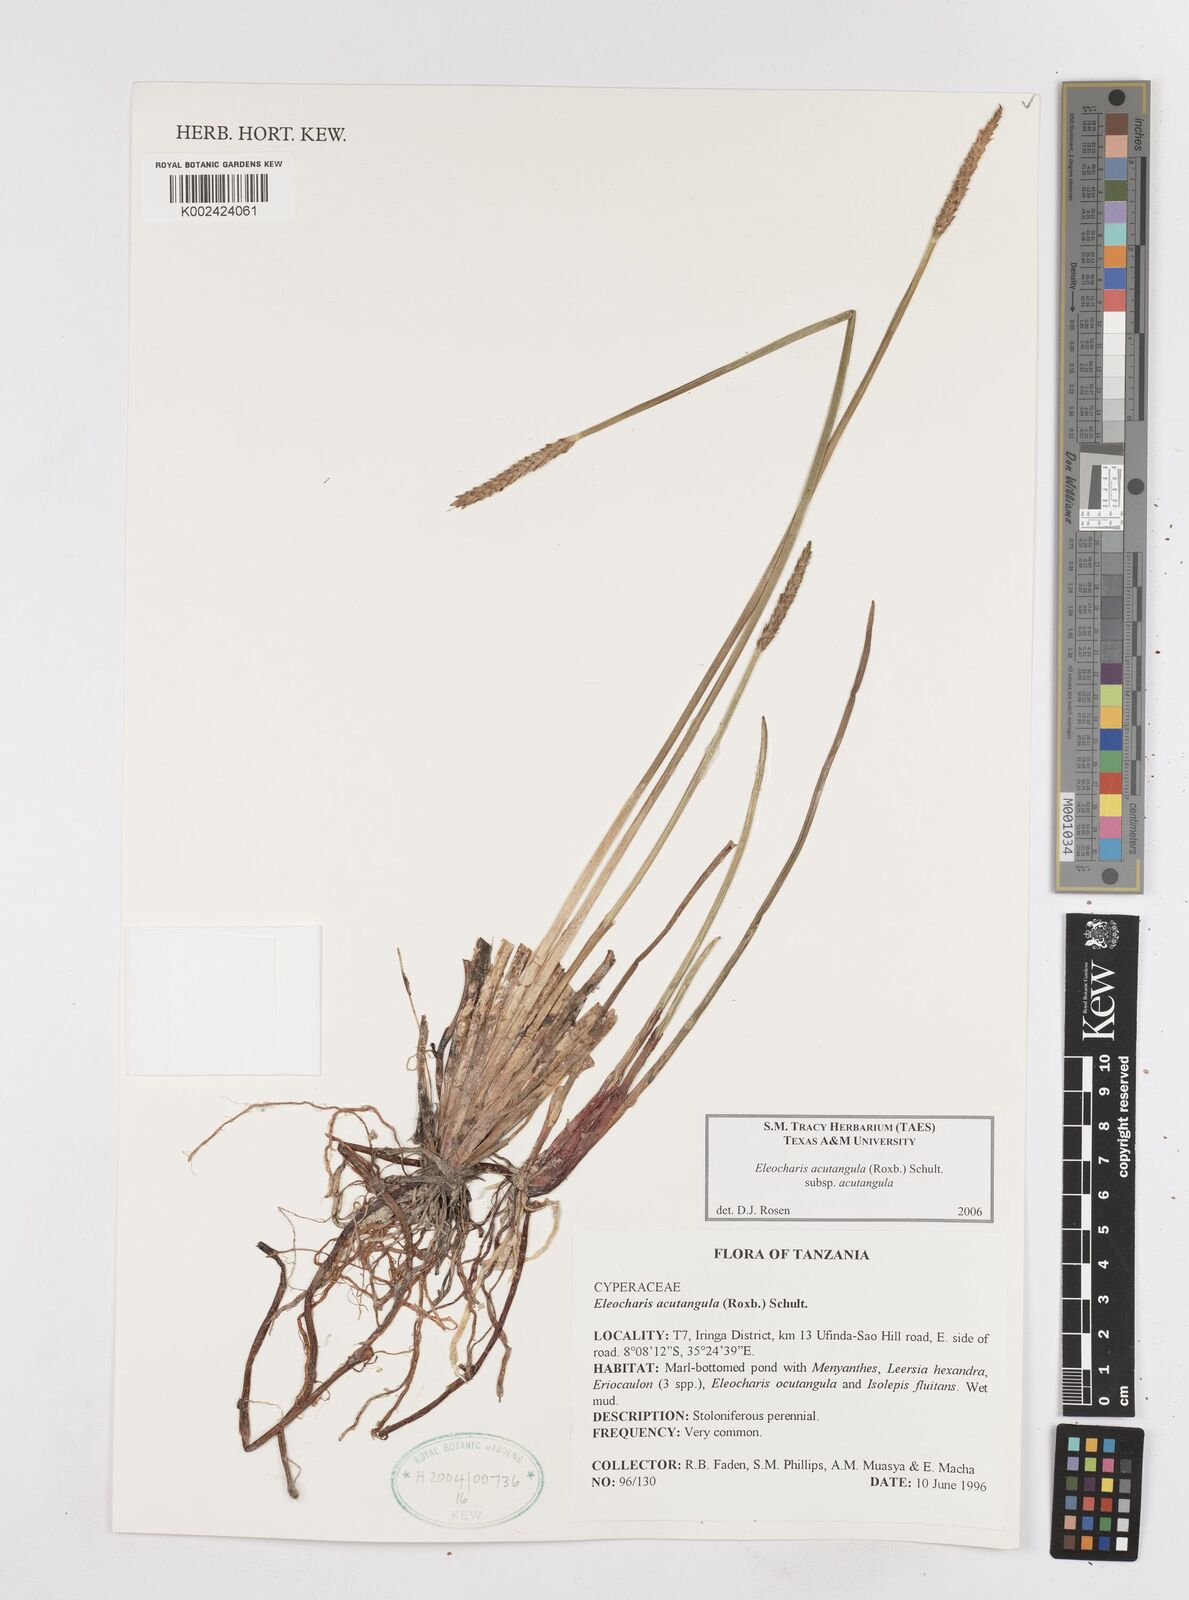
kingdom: Plantae
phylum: Tracheophyta
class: Liliopsida
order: Poales
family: Cyperaceae
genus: Eleocharis
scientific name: Eleocharis acutangula
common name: Acute spikerush
